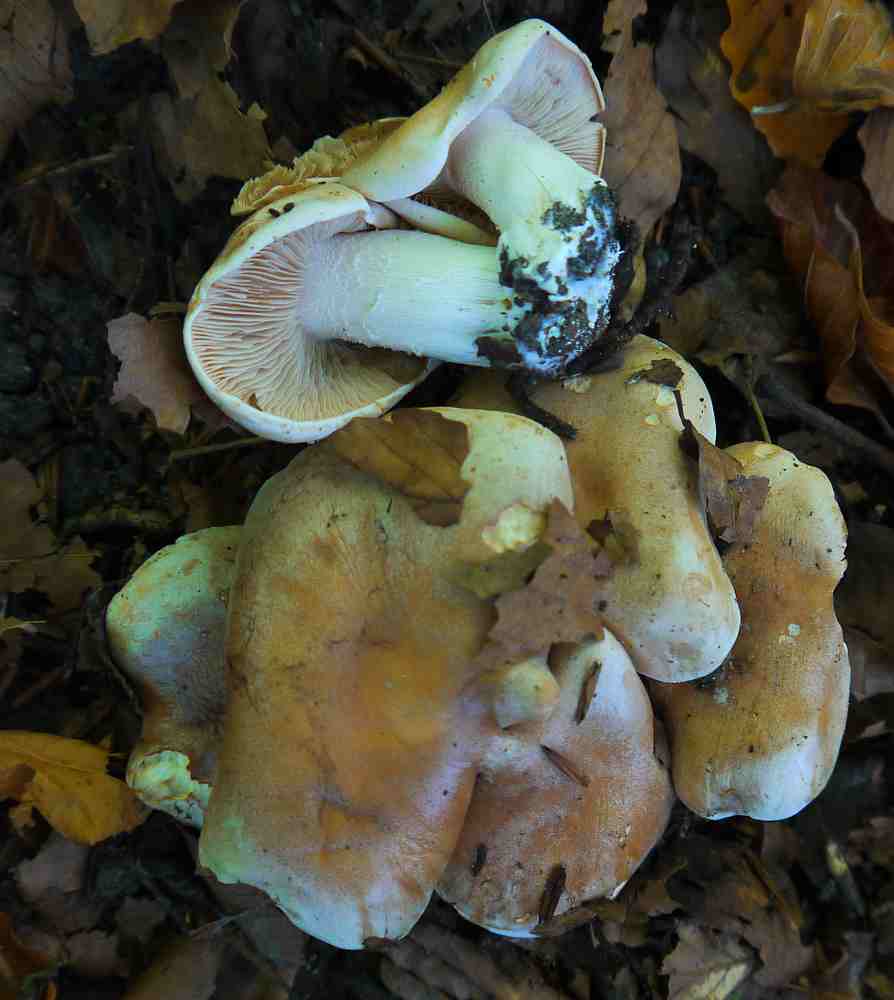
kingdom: Fungi
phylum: Basidiomycota
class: Agaricomycetes
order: Agaricales
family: Hymenogastraceae
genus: Hebeloma
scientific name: Hebeloma
